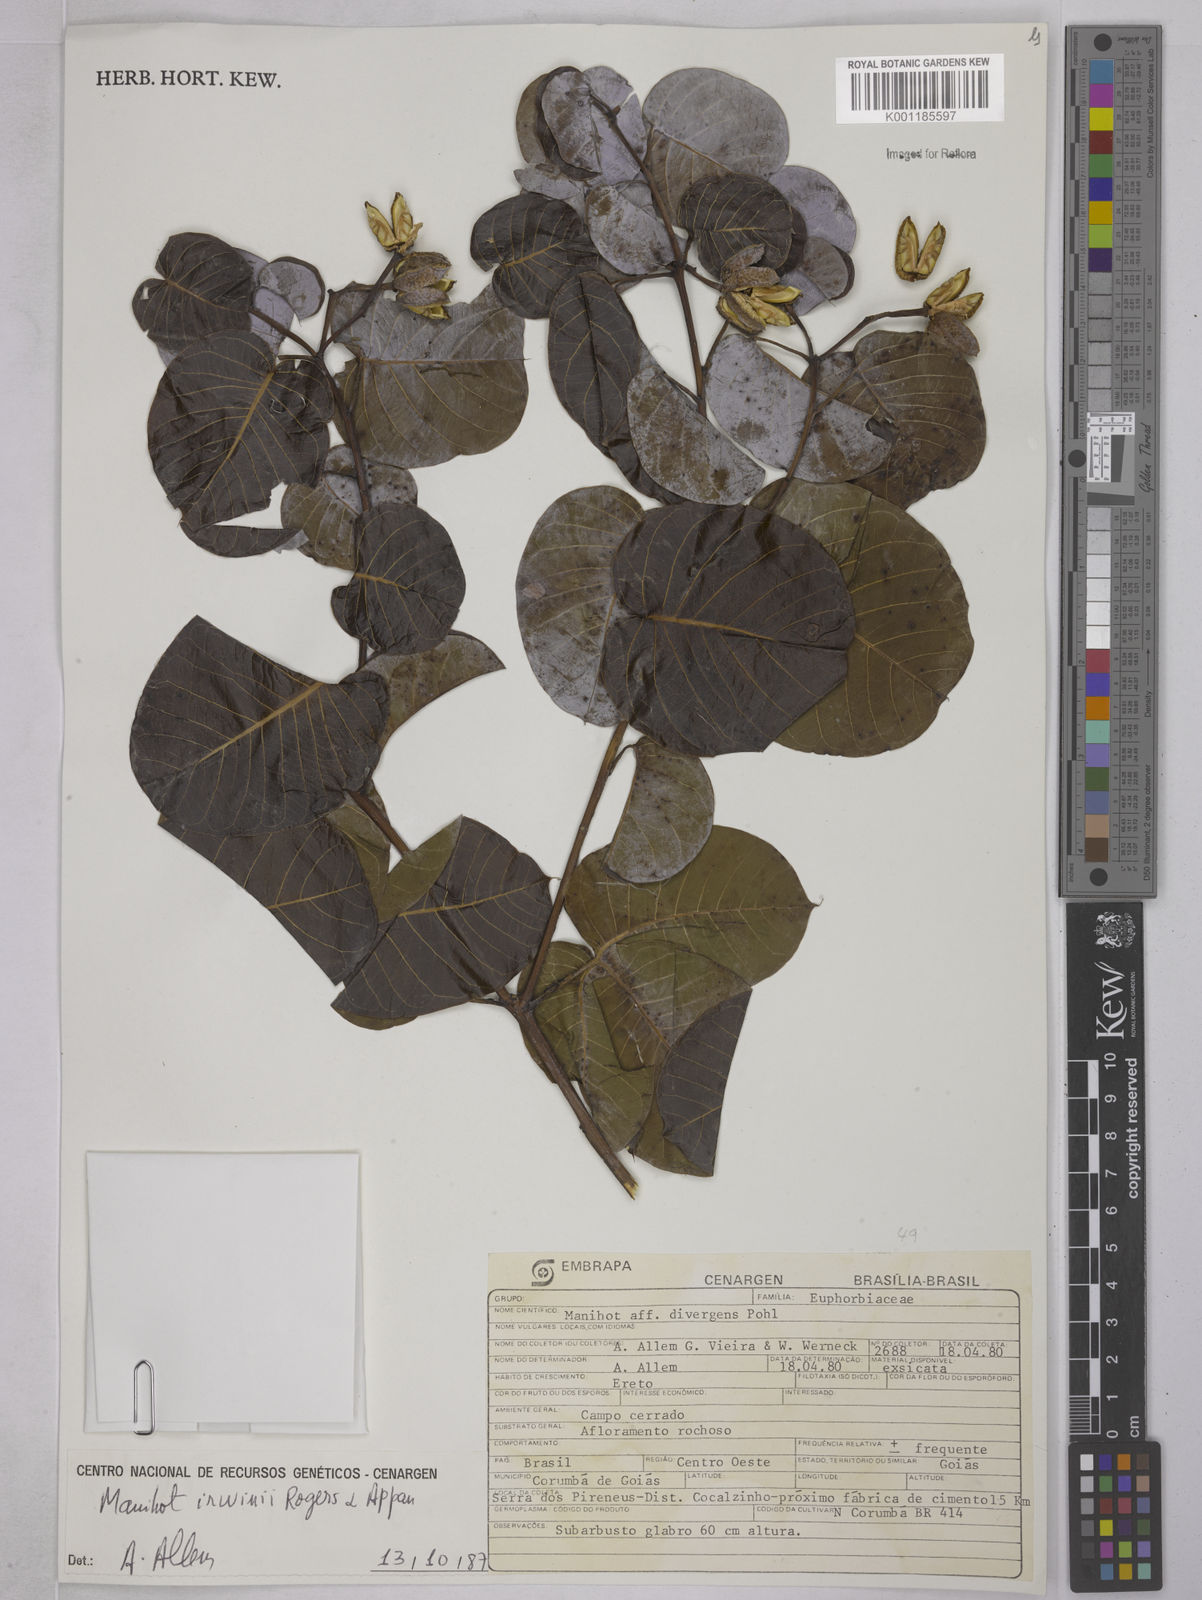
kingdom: Plantae
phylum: Tracheophyta
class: Magnoliopsida
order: Malpighiales
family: Euphorbiaceae
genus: Manihot
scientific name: Manihot irwinii
